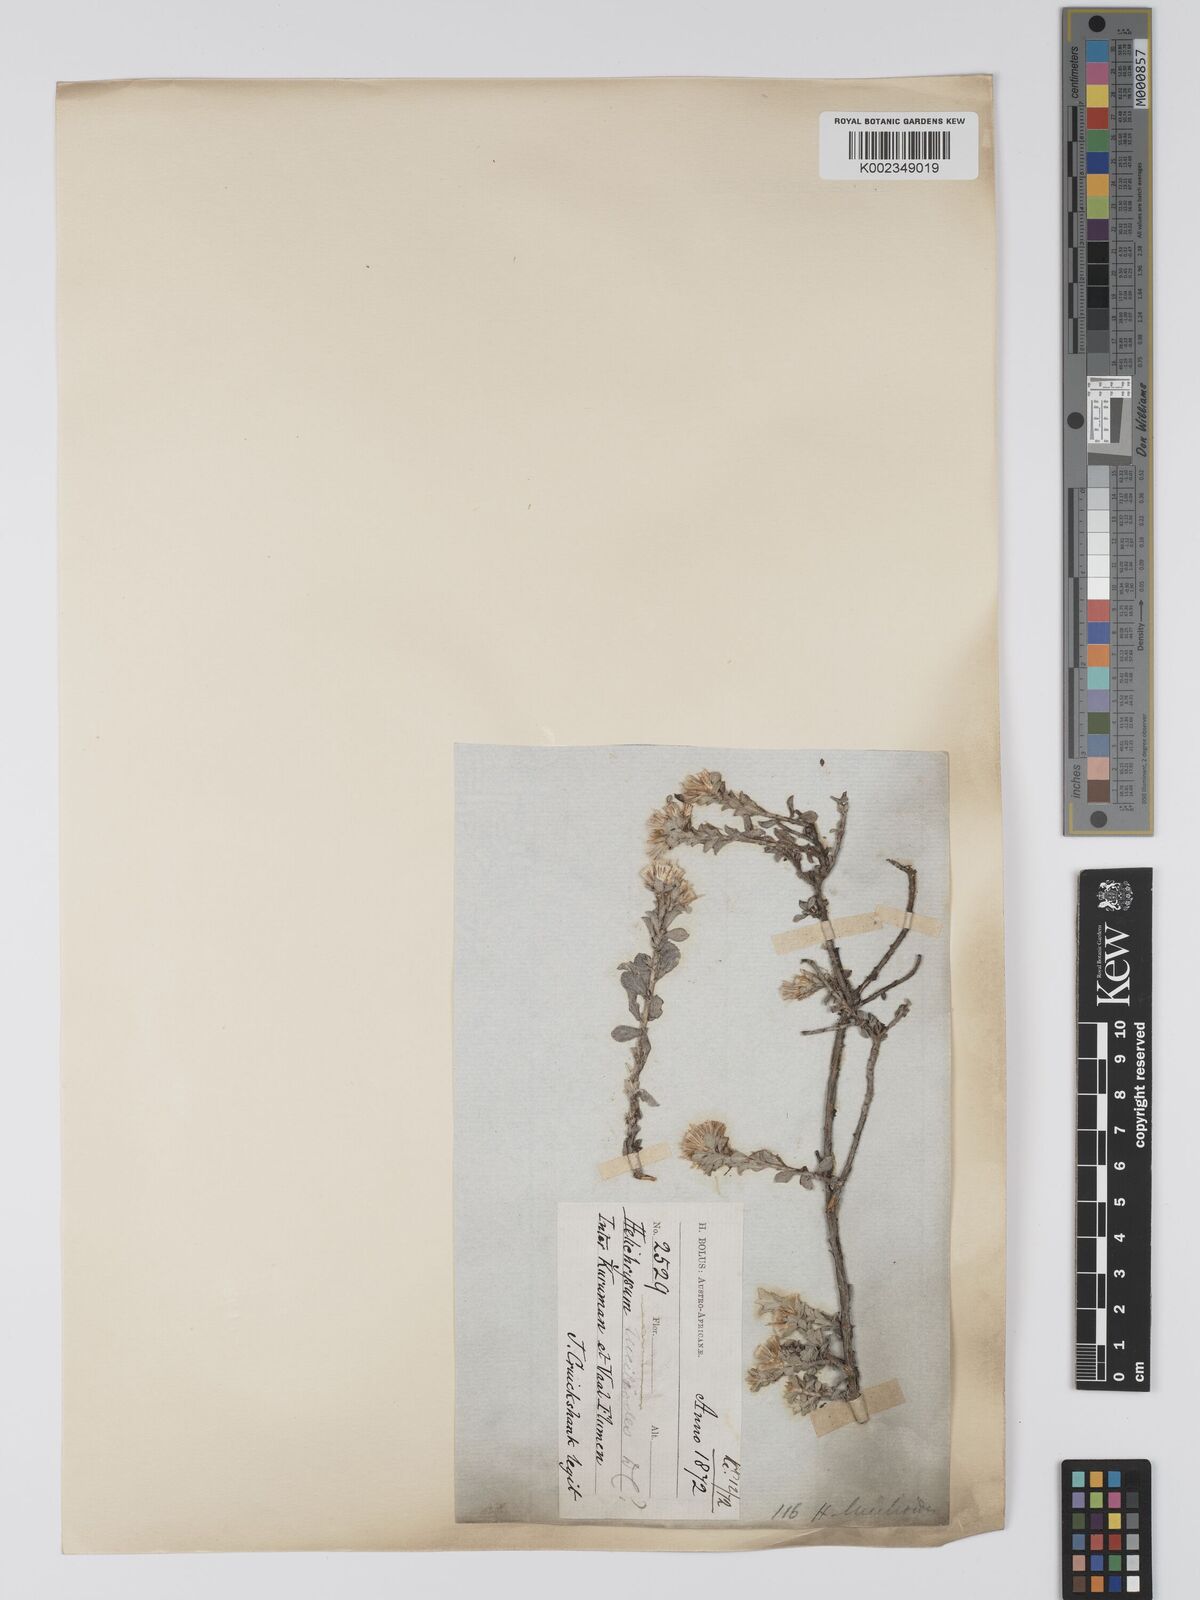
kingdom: Plantae
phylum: Tracheophyta
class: Magnoliopsida
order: Asterales
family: Asteraceae
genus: Helichrysum
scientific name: Helichrysum lucilioides
